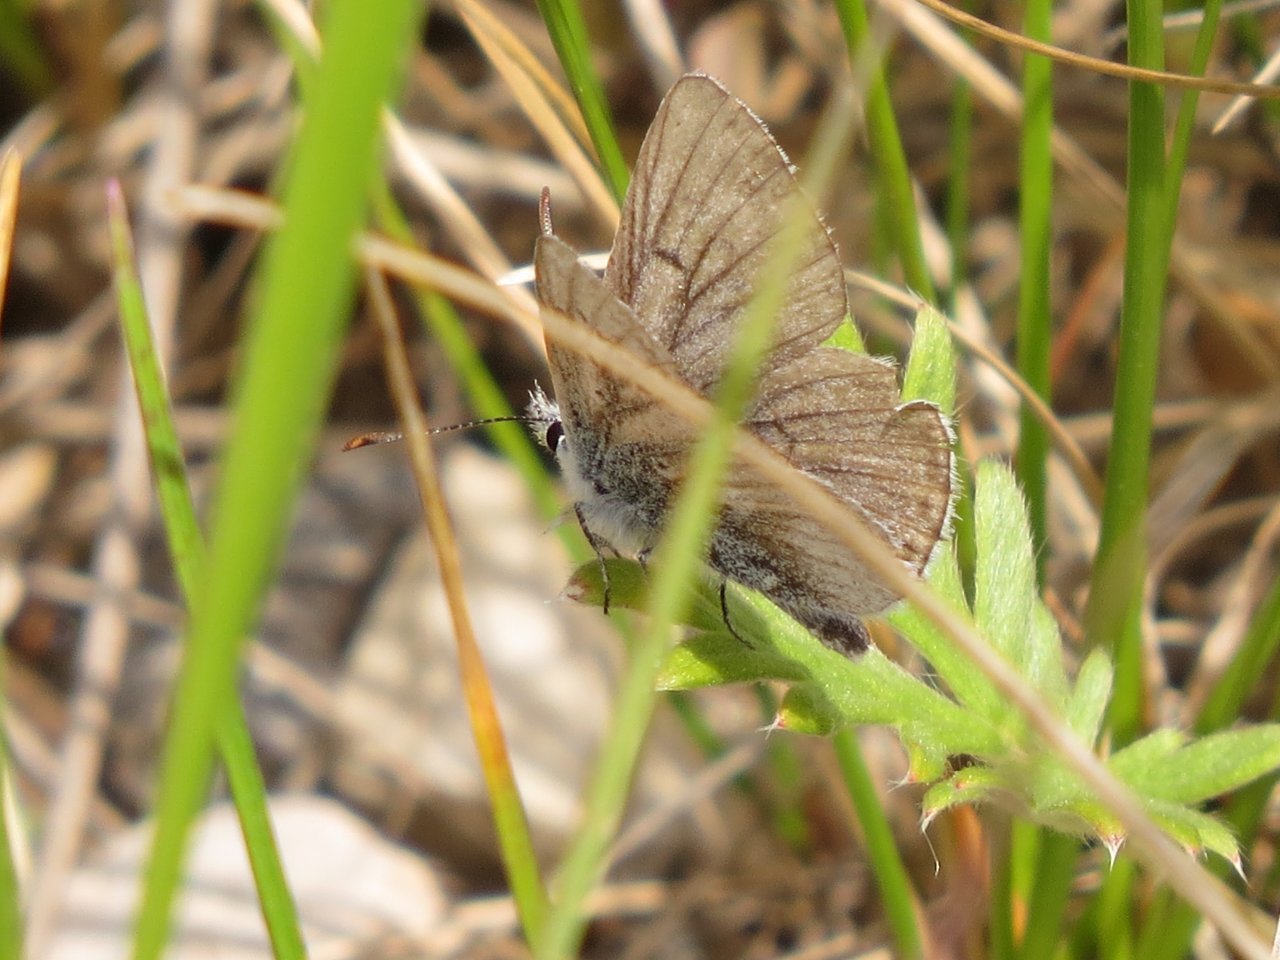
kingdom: Animalia
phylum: Arthropoda
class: Insecta
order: Lepidoptera
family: Lycaenidae
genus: Agriades
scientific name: Agriades glandon
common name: Arctic Blue
